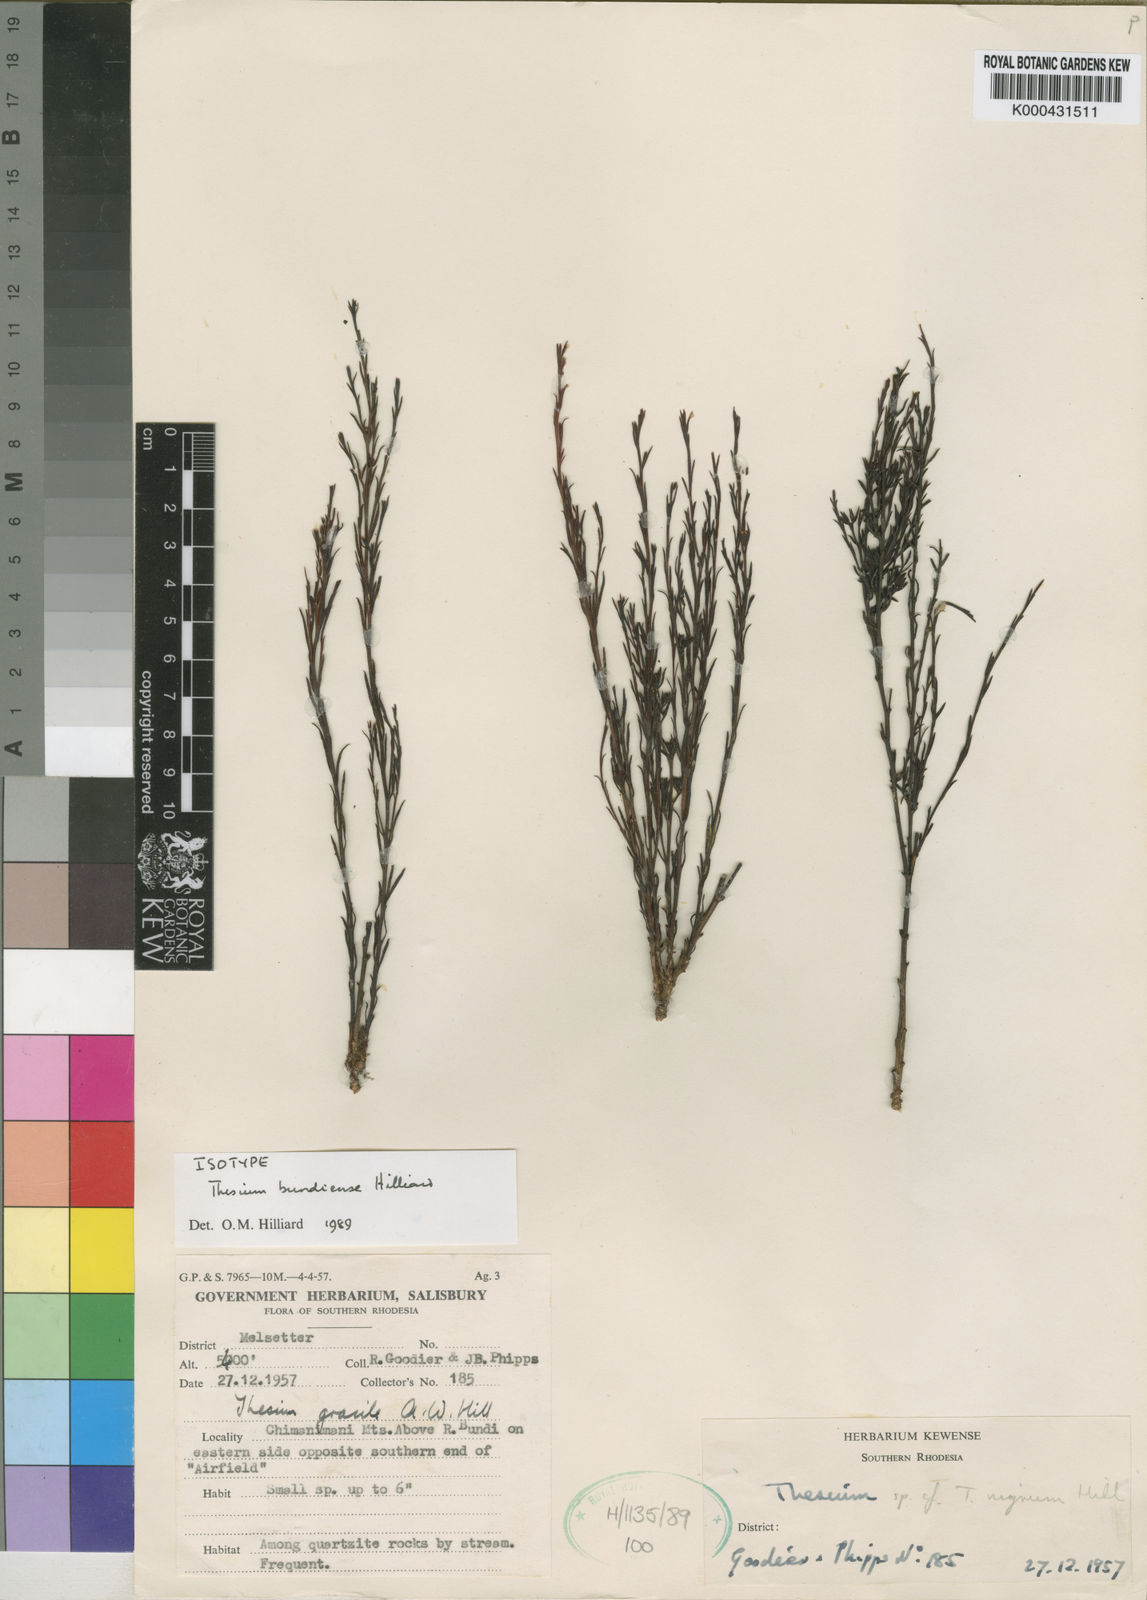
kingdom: Plantae
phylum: Tracheophyta
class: Magnoliopsida
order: Santalales
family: Thesiaceae
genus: Thesium
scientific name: Thesium bundiense
